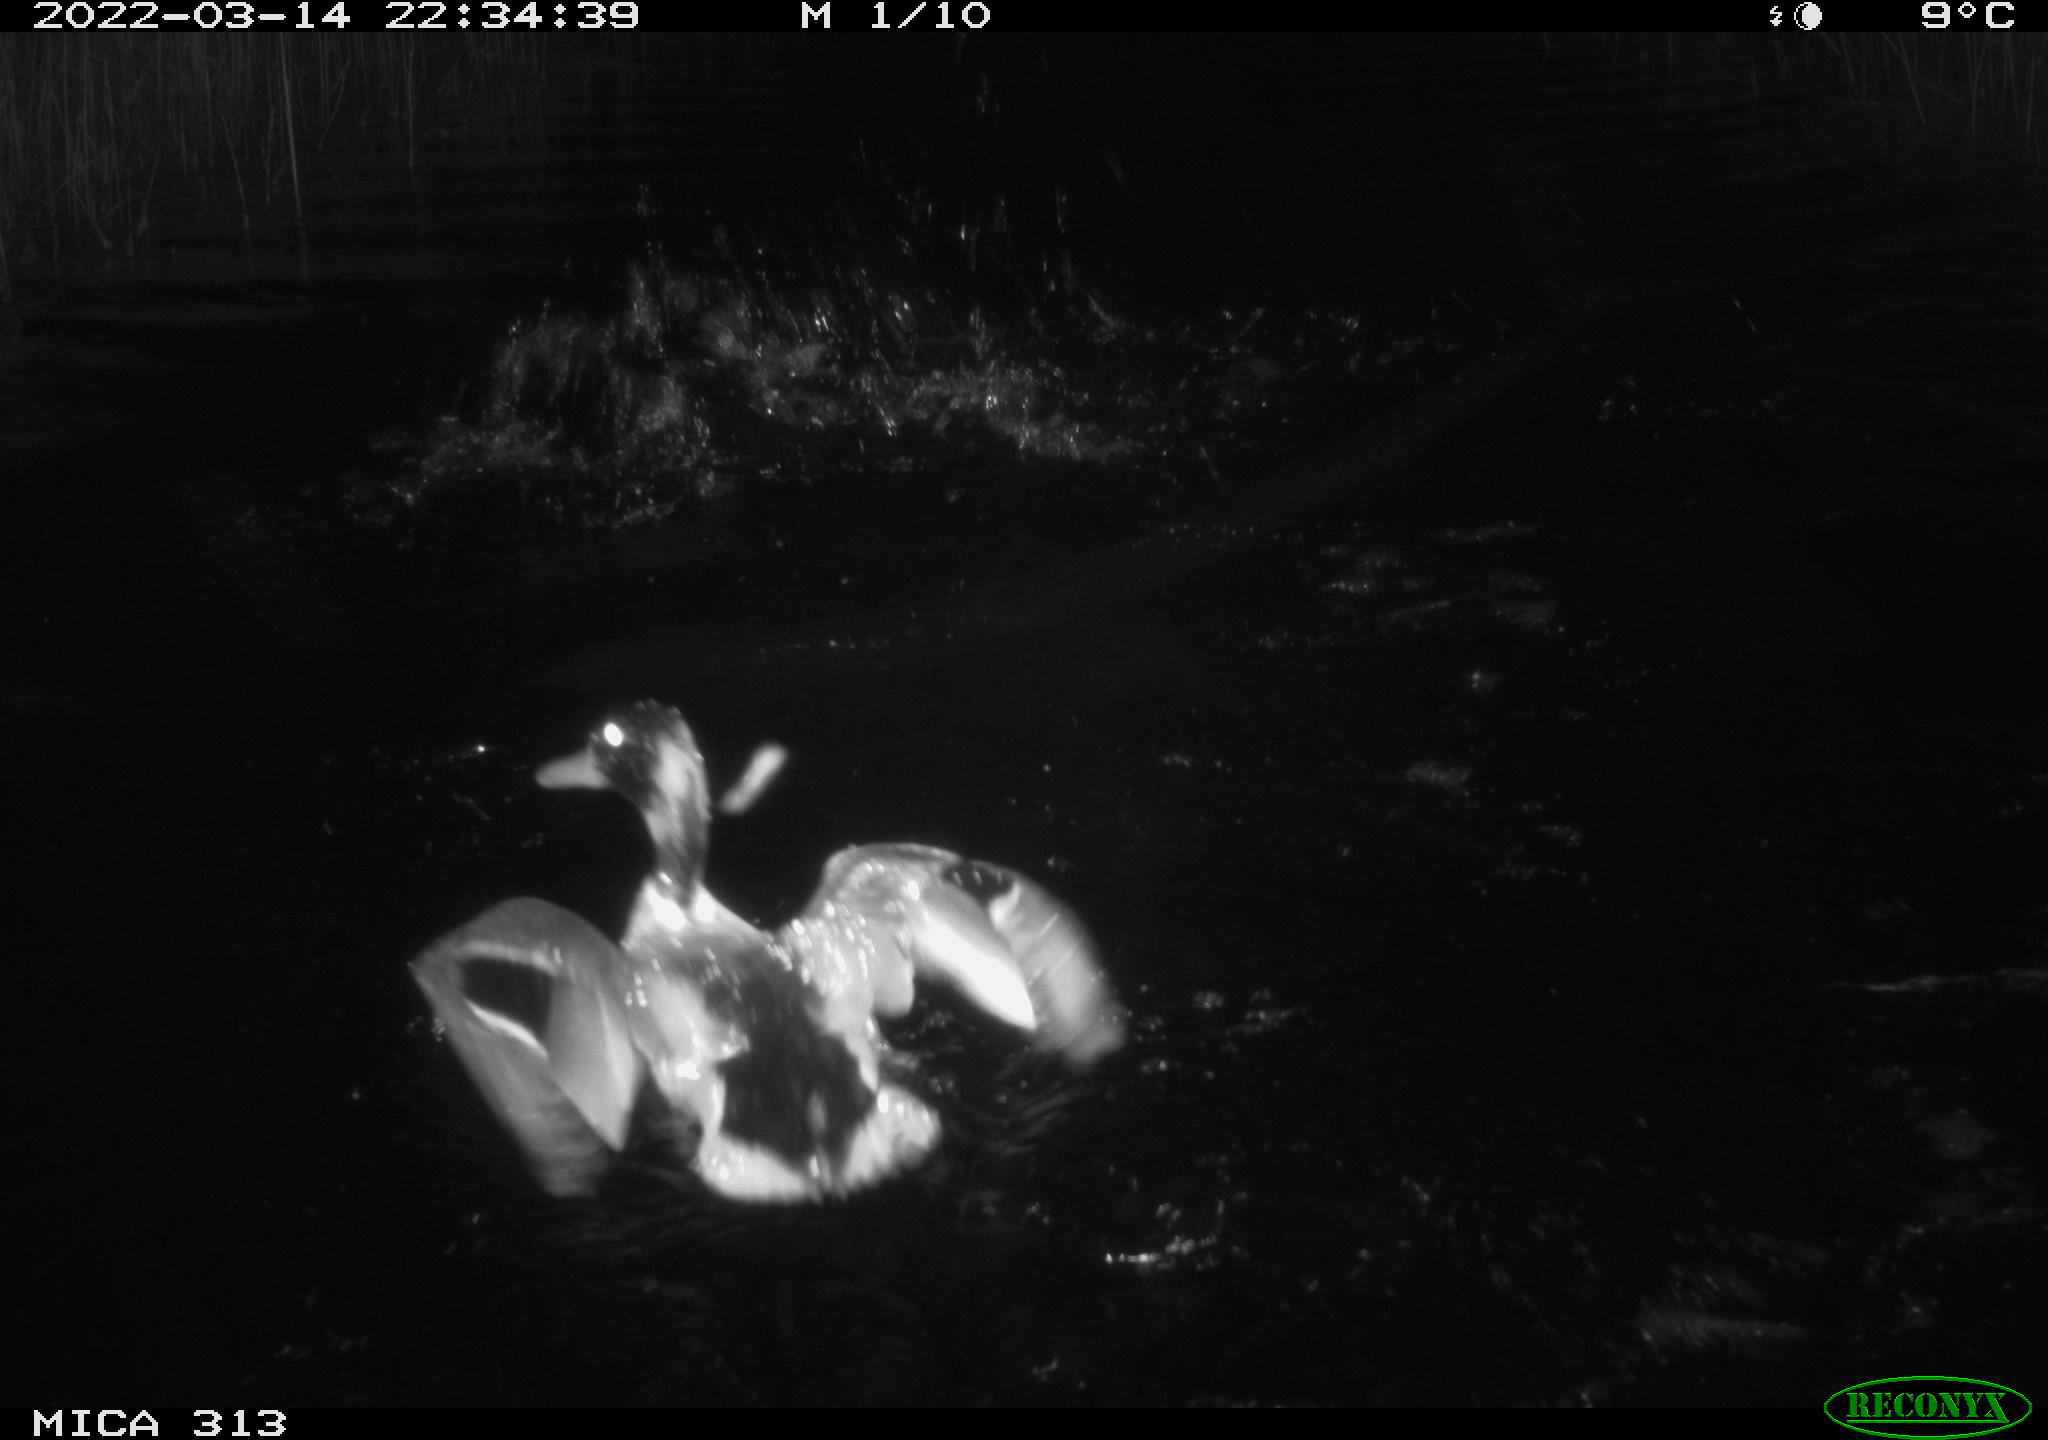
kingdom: Animalia
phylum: Chordata
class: Aves
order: Anseriformes
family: Anatidae
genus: Anas
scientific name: Anas platyrhynchos
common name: Mallard
